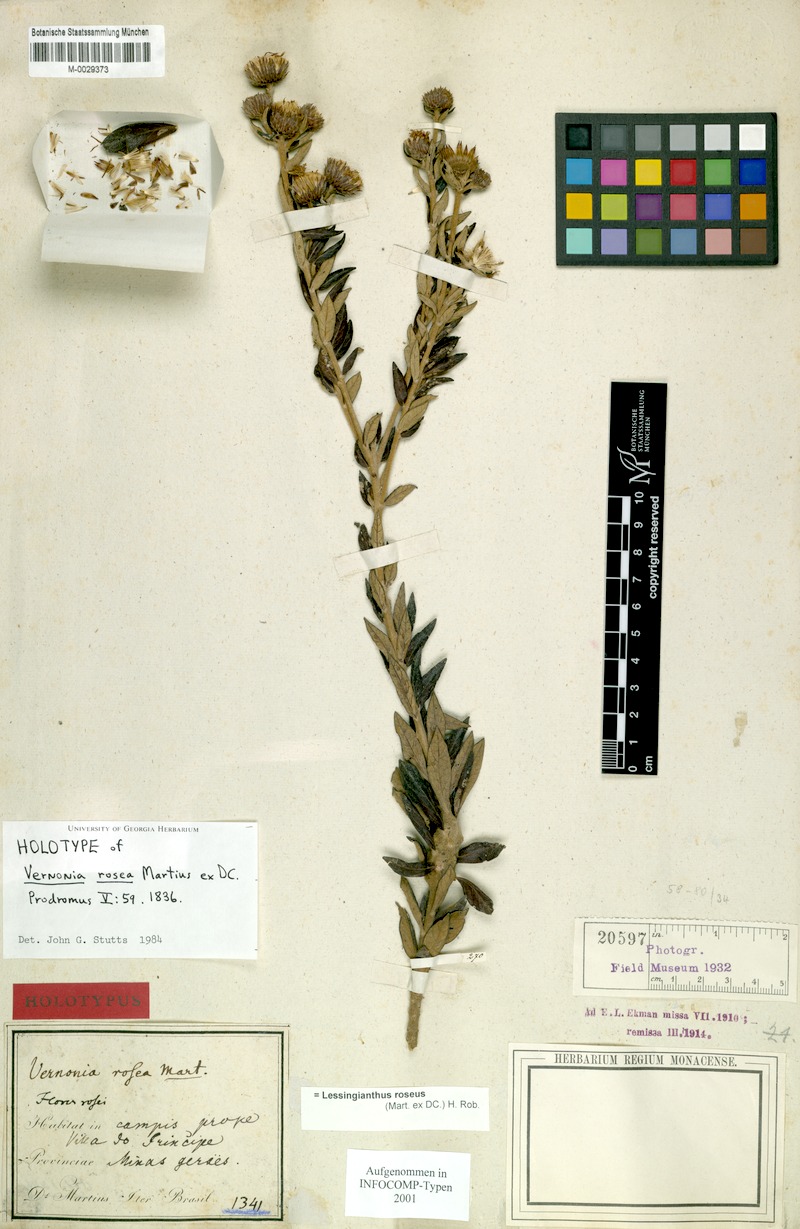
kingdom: Plantae
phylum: Tracheophyta
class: Magnoliopsida
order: Asterales
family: Asteraceae
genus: Lessingianthus
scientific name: Lessingianthus roseus
